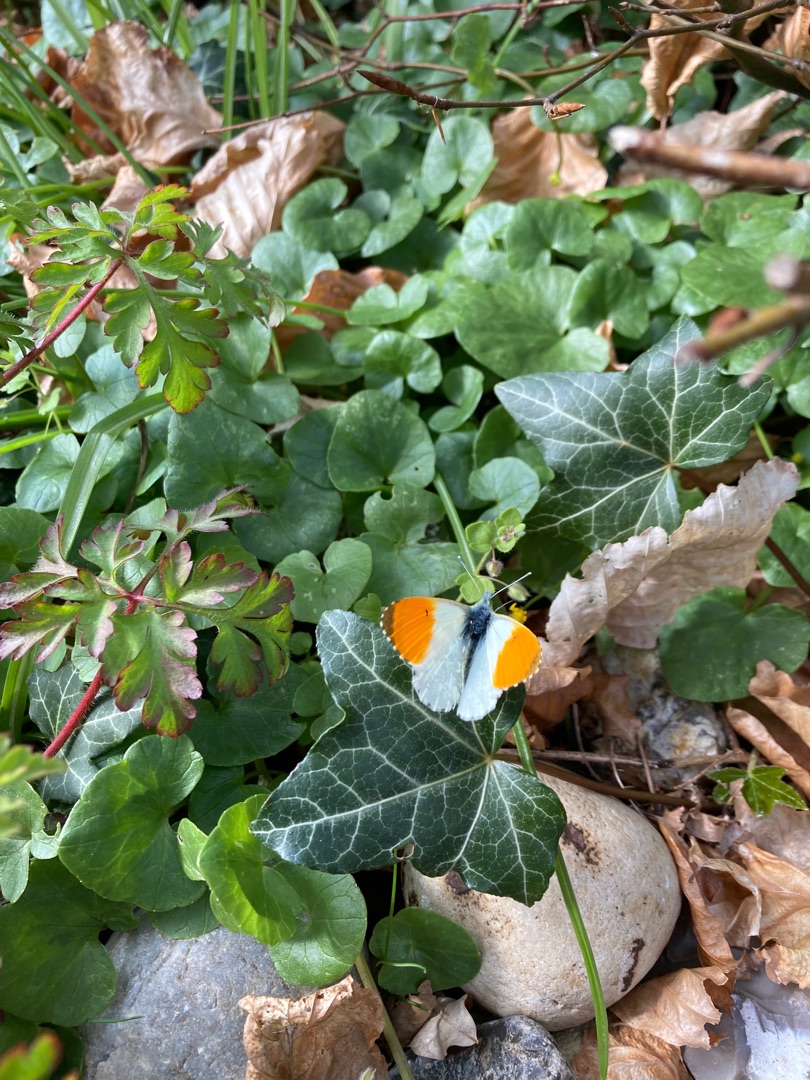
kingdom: Animalia
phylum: Arthropoda
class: Insecta
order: Lepidoptera
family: Pieridae
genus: Anthocharis
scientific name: Anthocharis cardamines
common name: Aurora
